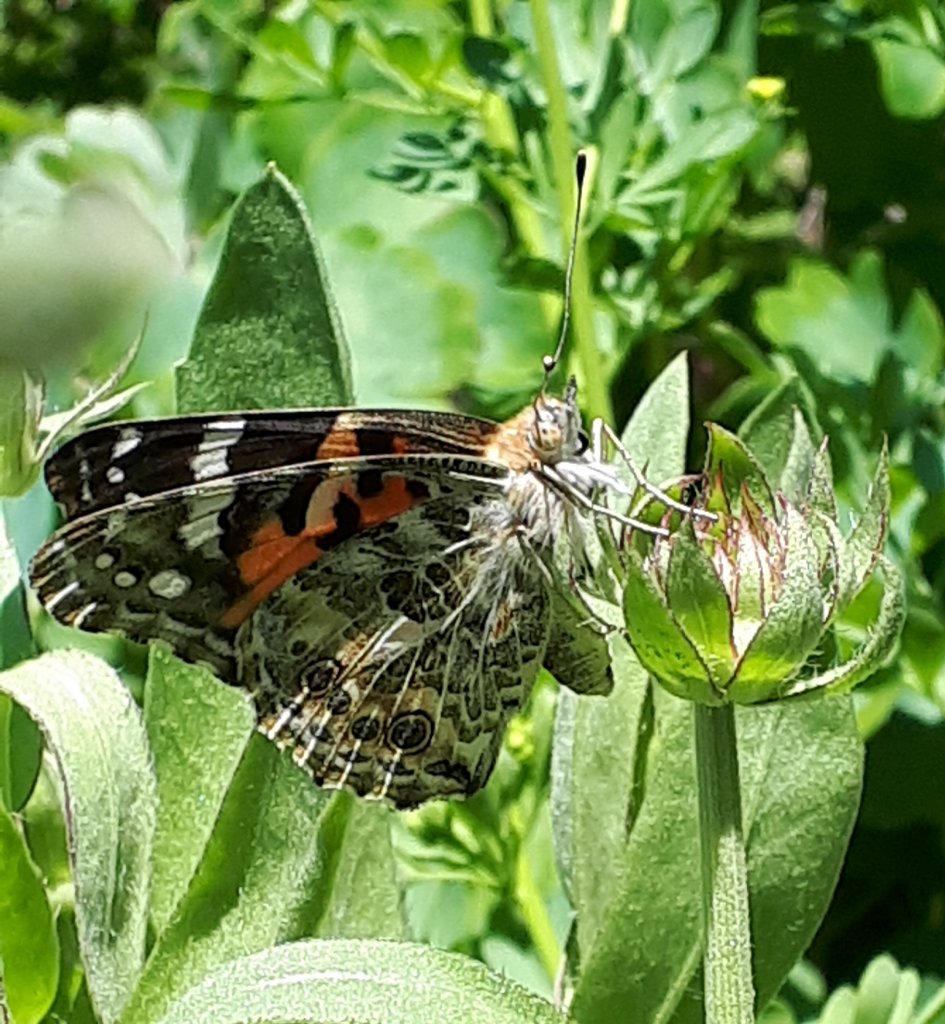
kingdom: Animalia
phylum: Arthropoda
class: Insecta
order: Lepidoptera
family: Nymphalidae
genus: Vanessa
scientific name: Vanessa cardui
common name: Painted Lady
